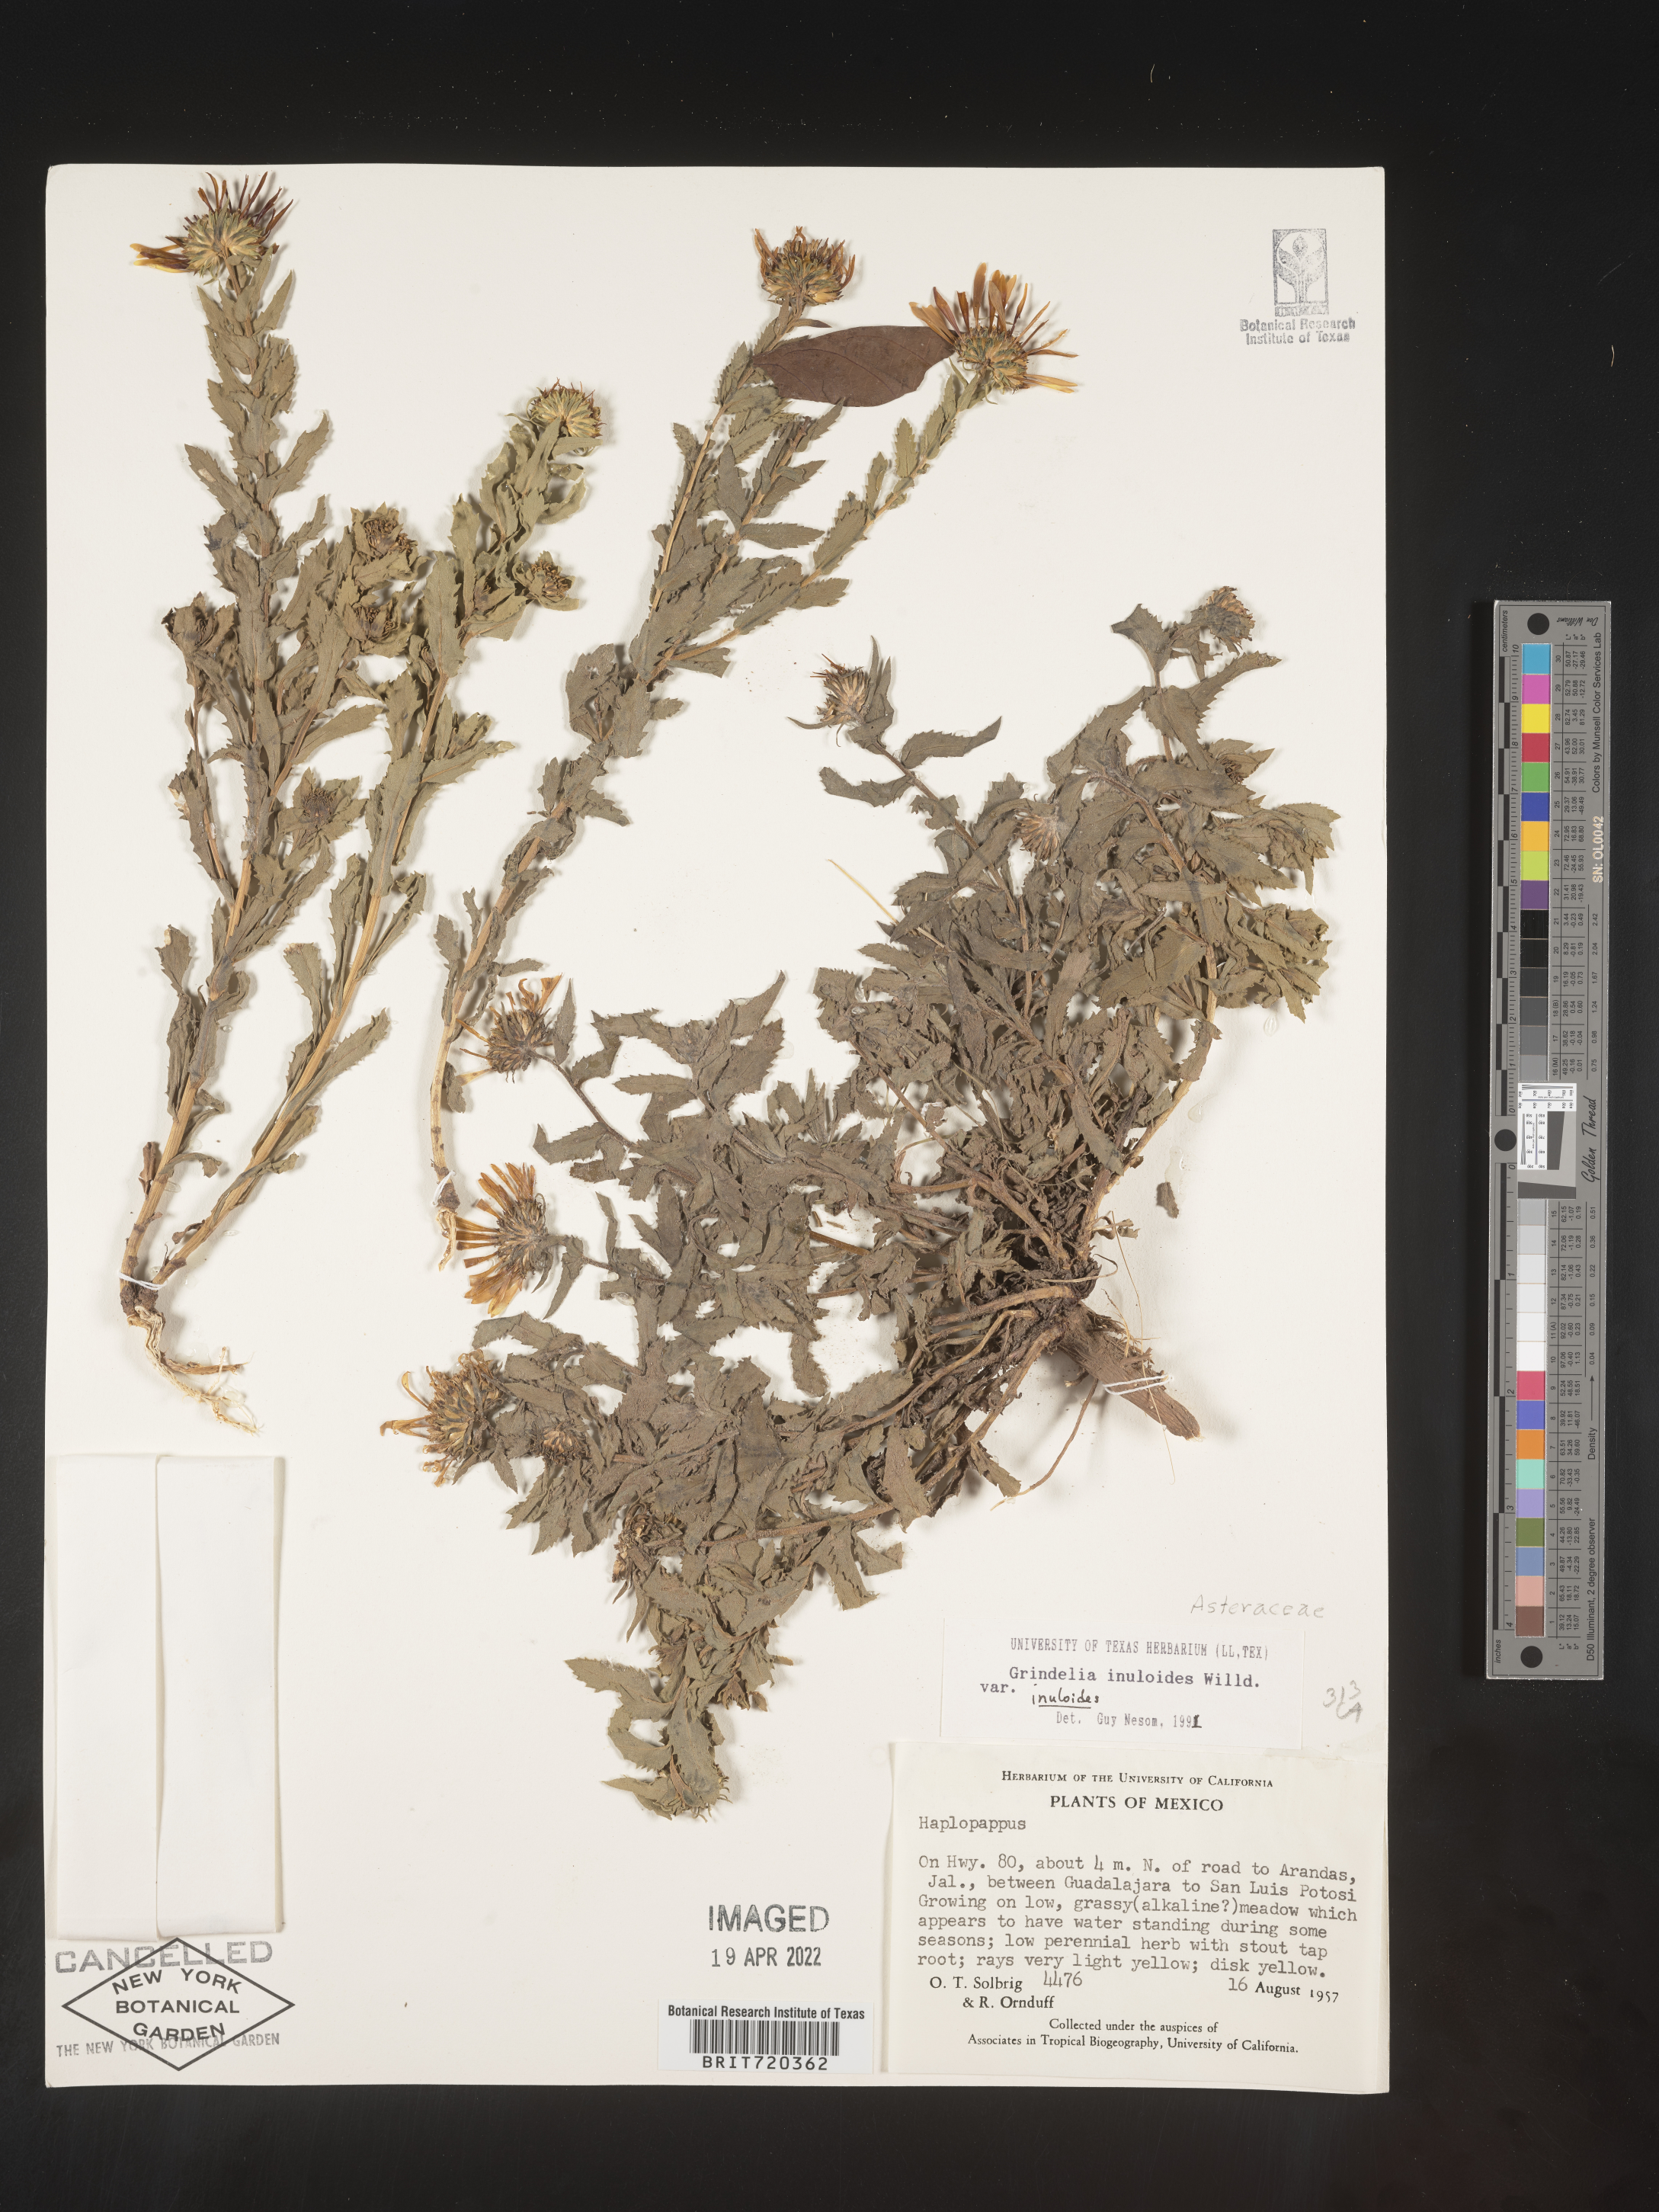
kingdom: Plantae
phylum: Tracheophyta
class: Magnoliopsida
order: Asterales
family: Asteraceae
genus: Grindelia
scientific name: Grindelia
